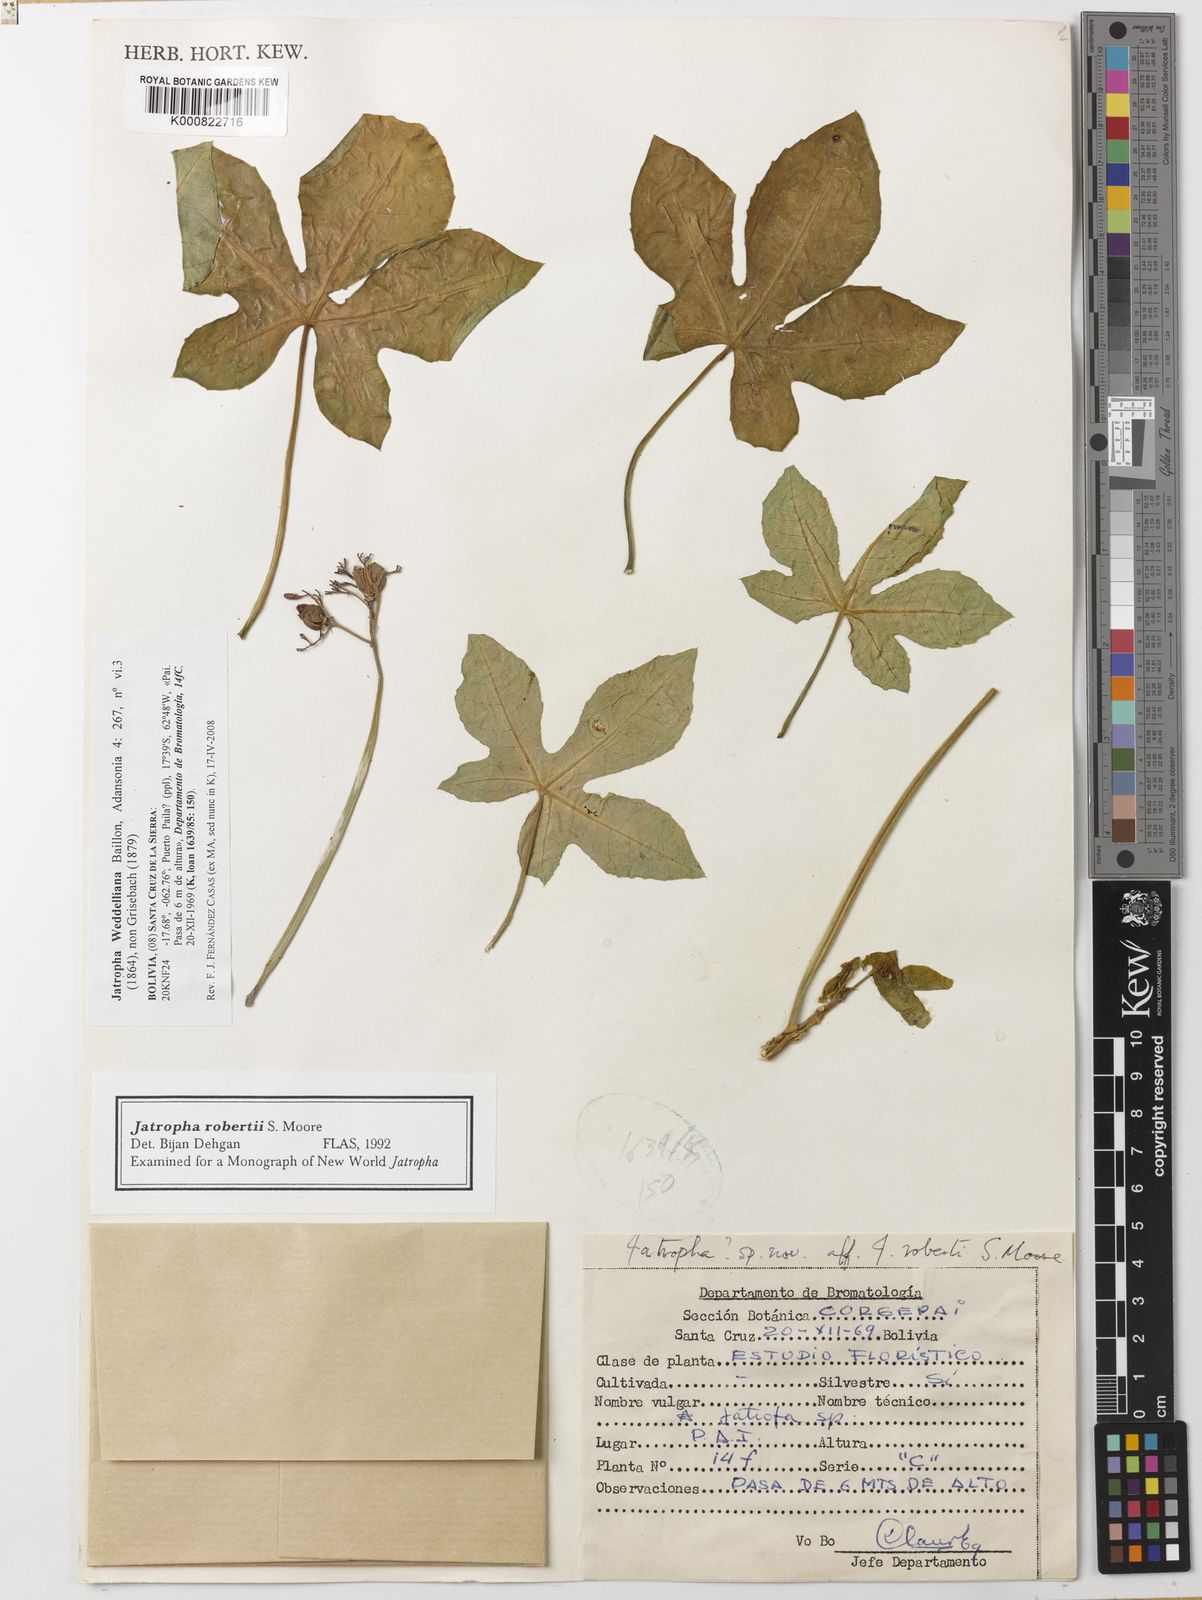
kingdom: Plantae
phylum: Tracheophyta
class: Magnoliopsida
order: Malpighiales
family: Euphorbiaceae
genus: Jatropha
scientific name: Jatropha weddeliana
